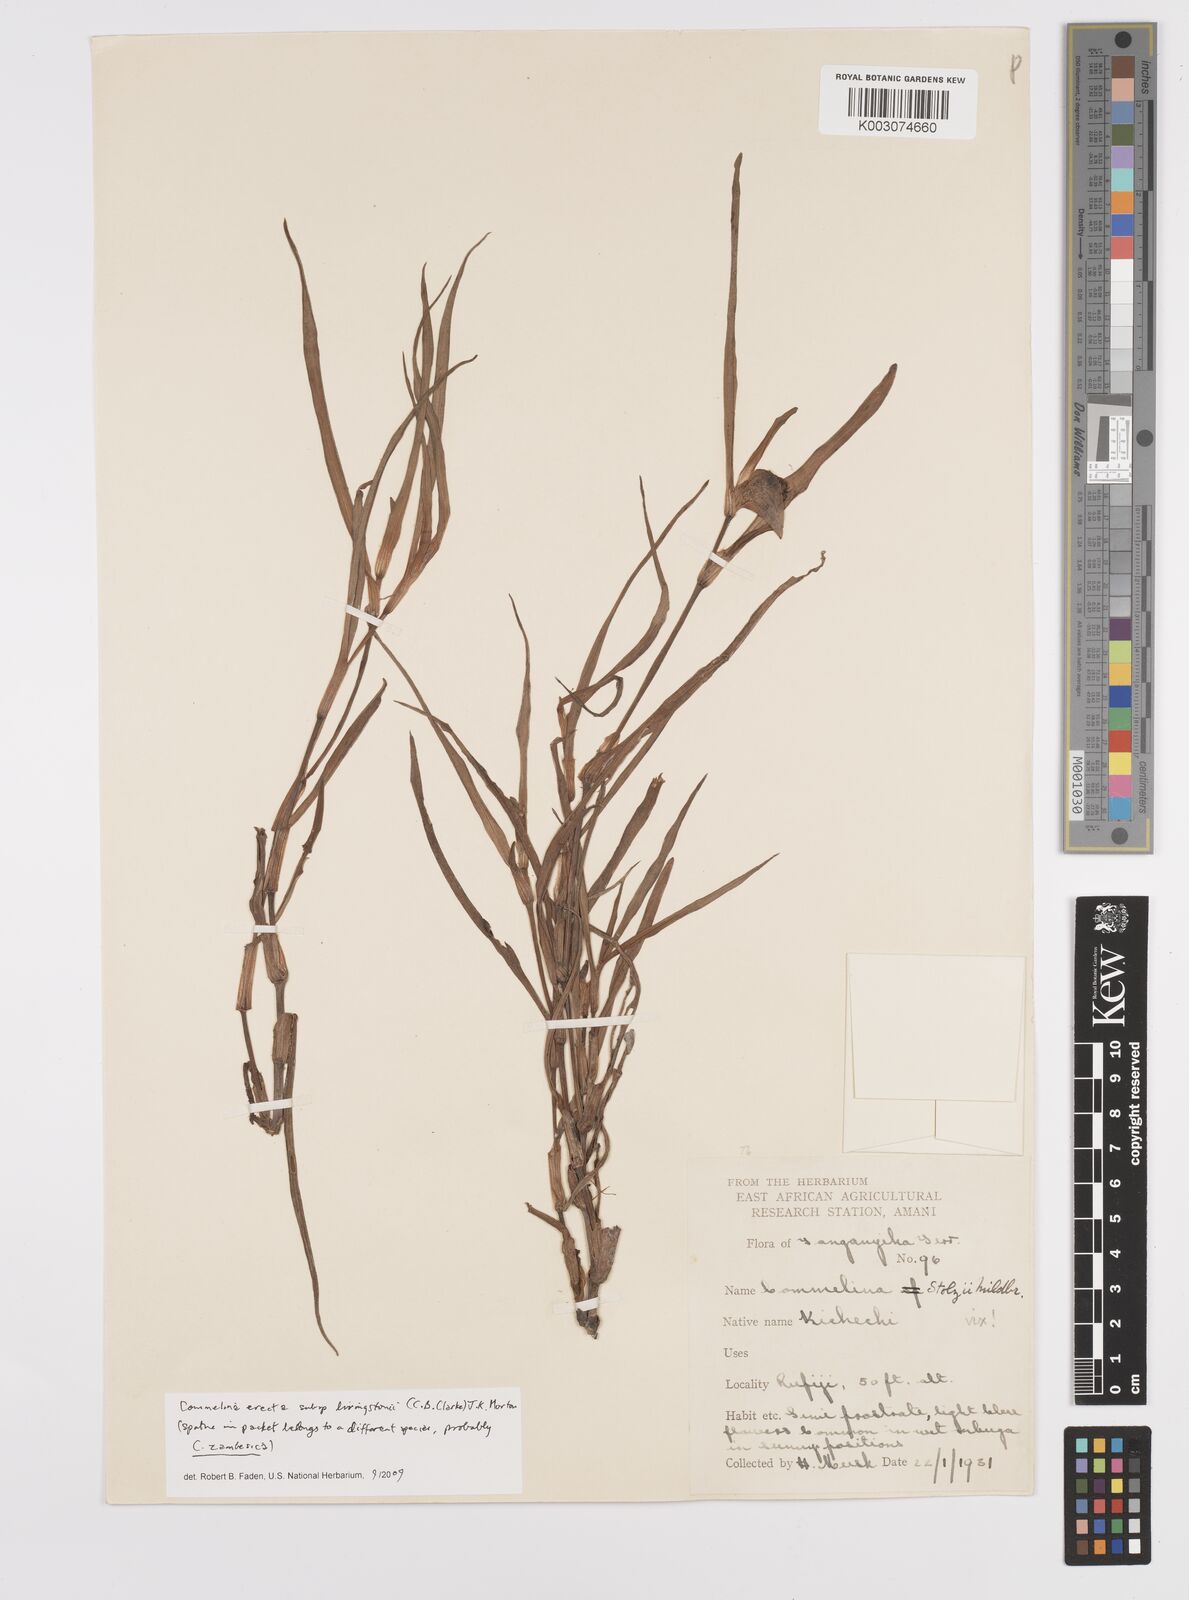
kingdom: Plantae
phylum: Tracheophyta
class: Liliopsida
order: Commelinales
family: Commelinaceae
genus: Commelina
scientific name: Commelina erecta
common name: Blousel blommetjie
